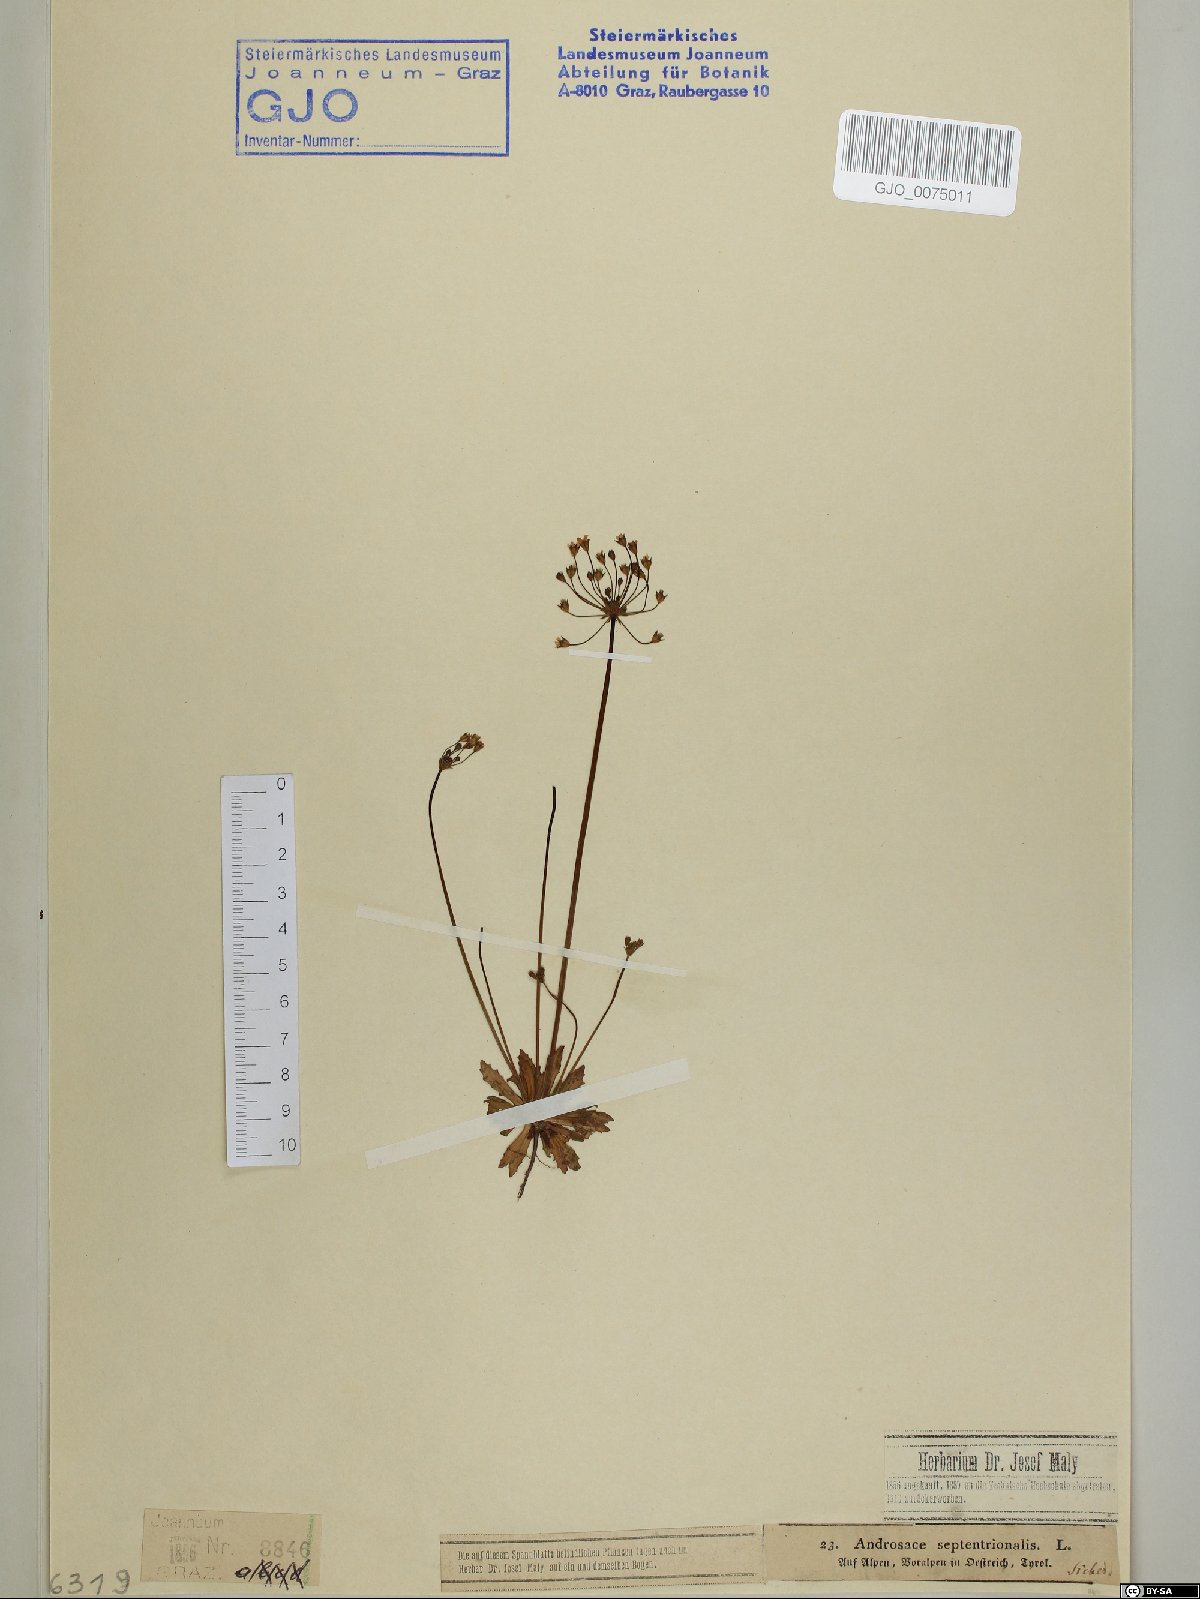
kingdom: Plantae
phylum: Tracheophyta
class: Magnoliopsida
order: Ericales
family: Primulaceae
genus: Androsace
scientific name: Androsace septentrionalis
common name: Hairy northern fairy-candelabra
